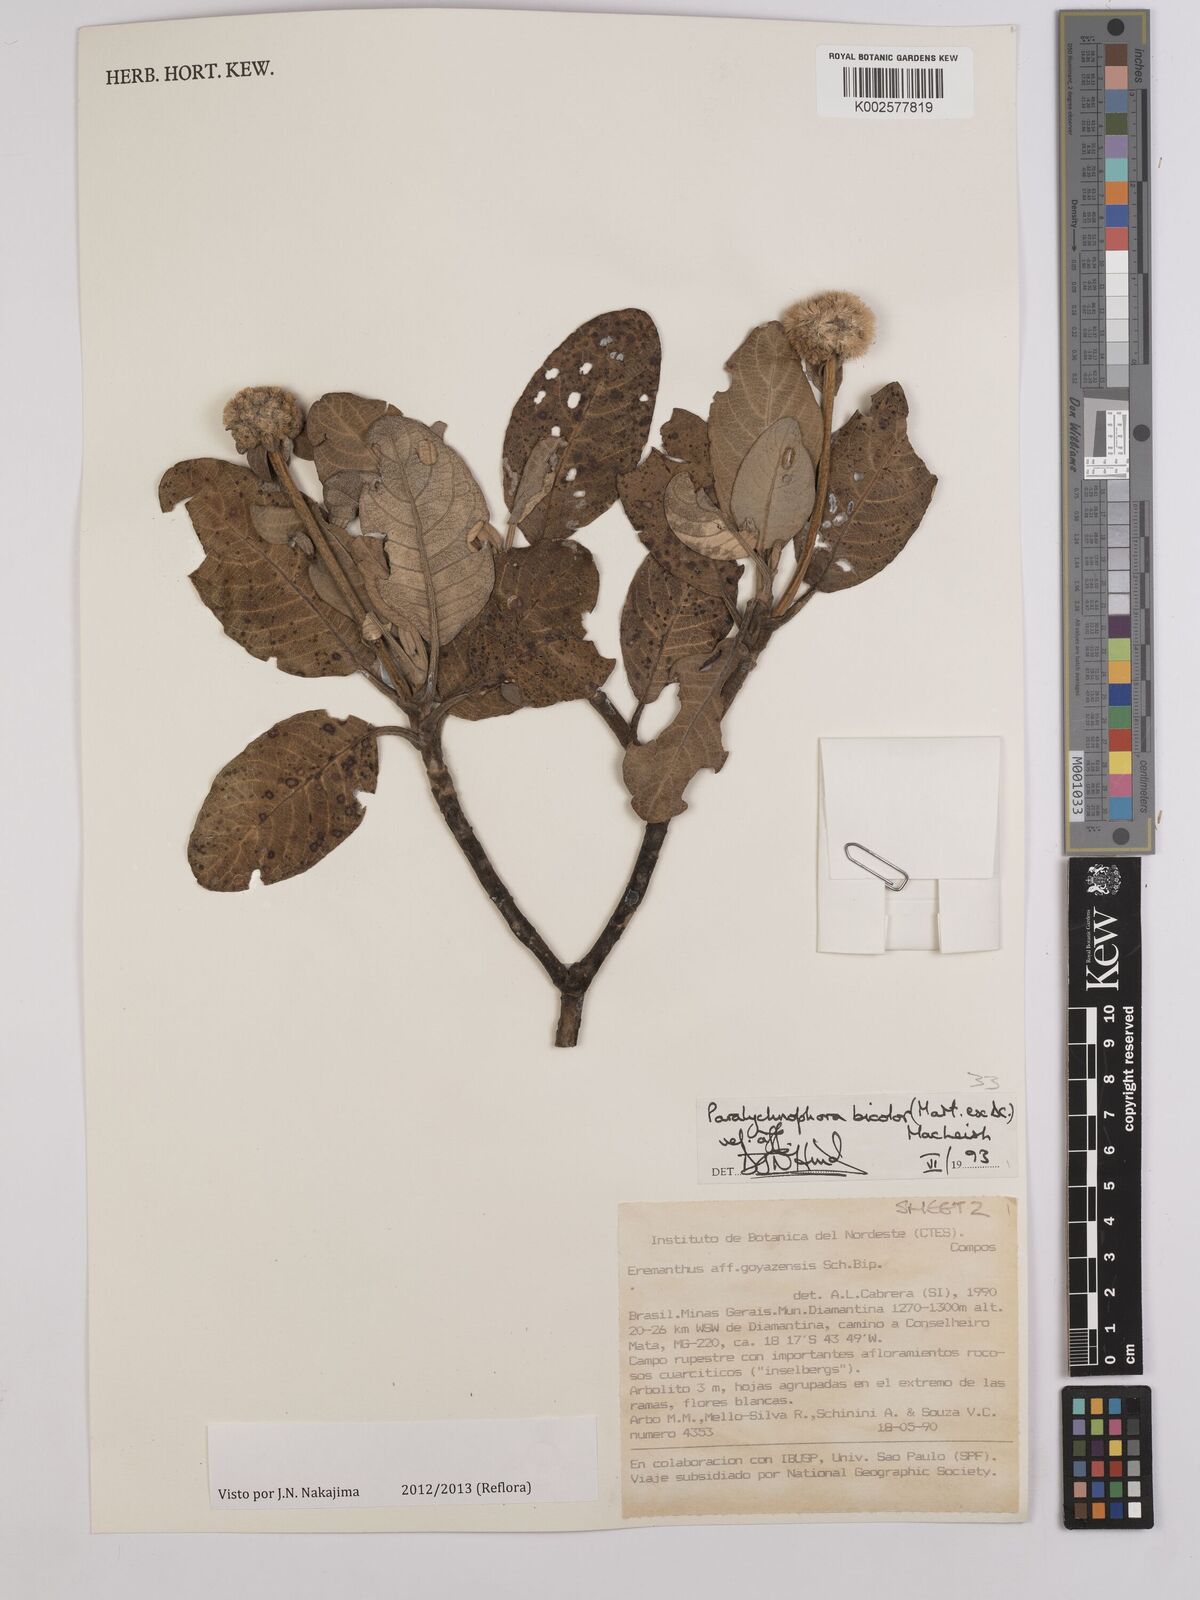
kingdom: Plantae
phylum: Tracheophyta
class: Magnoliopsida
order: Asterales
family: Asteraceae
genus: Paralychnophora
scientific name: Paralychnophora bicolor
